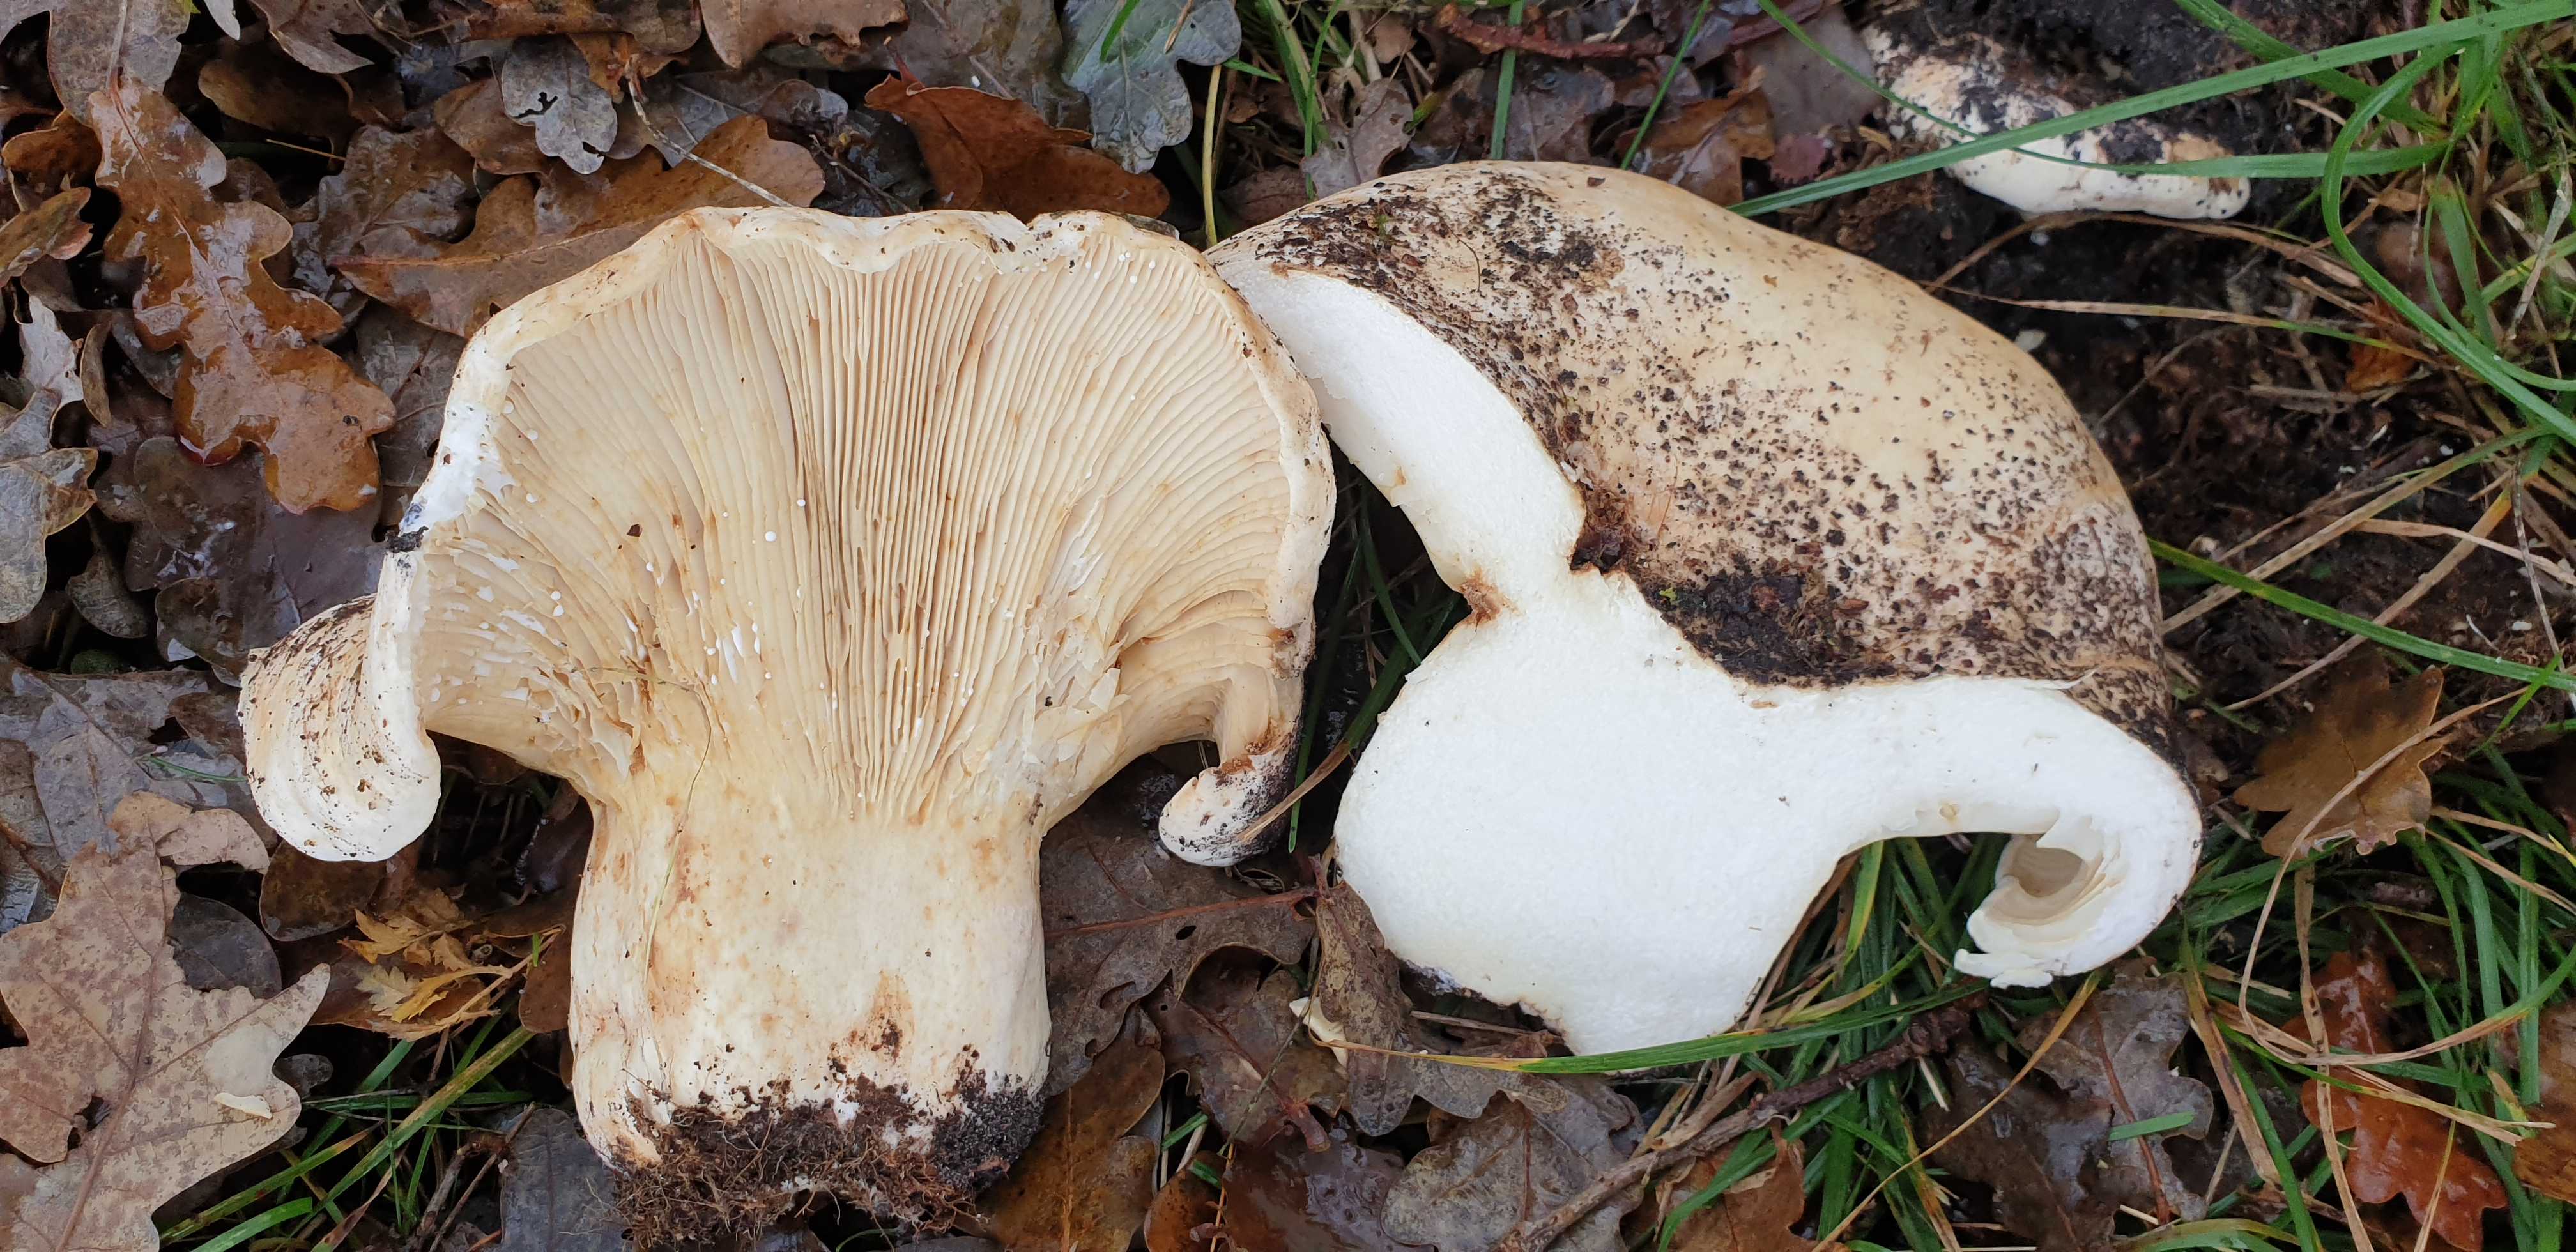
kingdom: Fungi
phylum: Basidiomycota
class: Agaricomycetes
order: Russulales
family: Russulaceae
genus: Lactifluus
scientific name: Lactifluus vellereus
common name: hvidfiltet mælkehat
